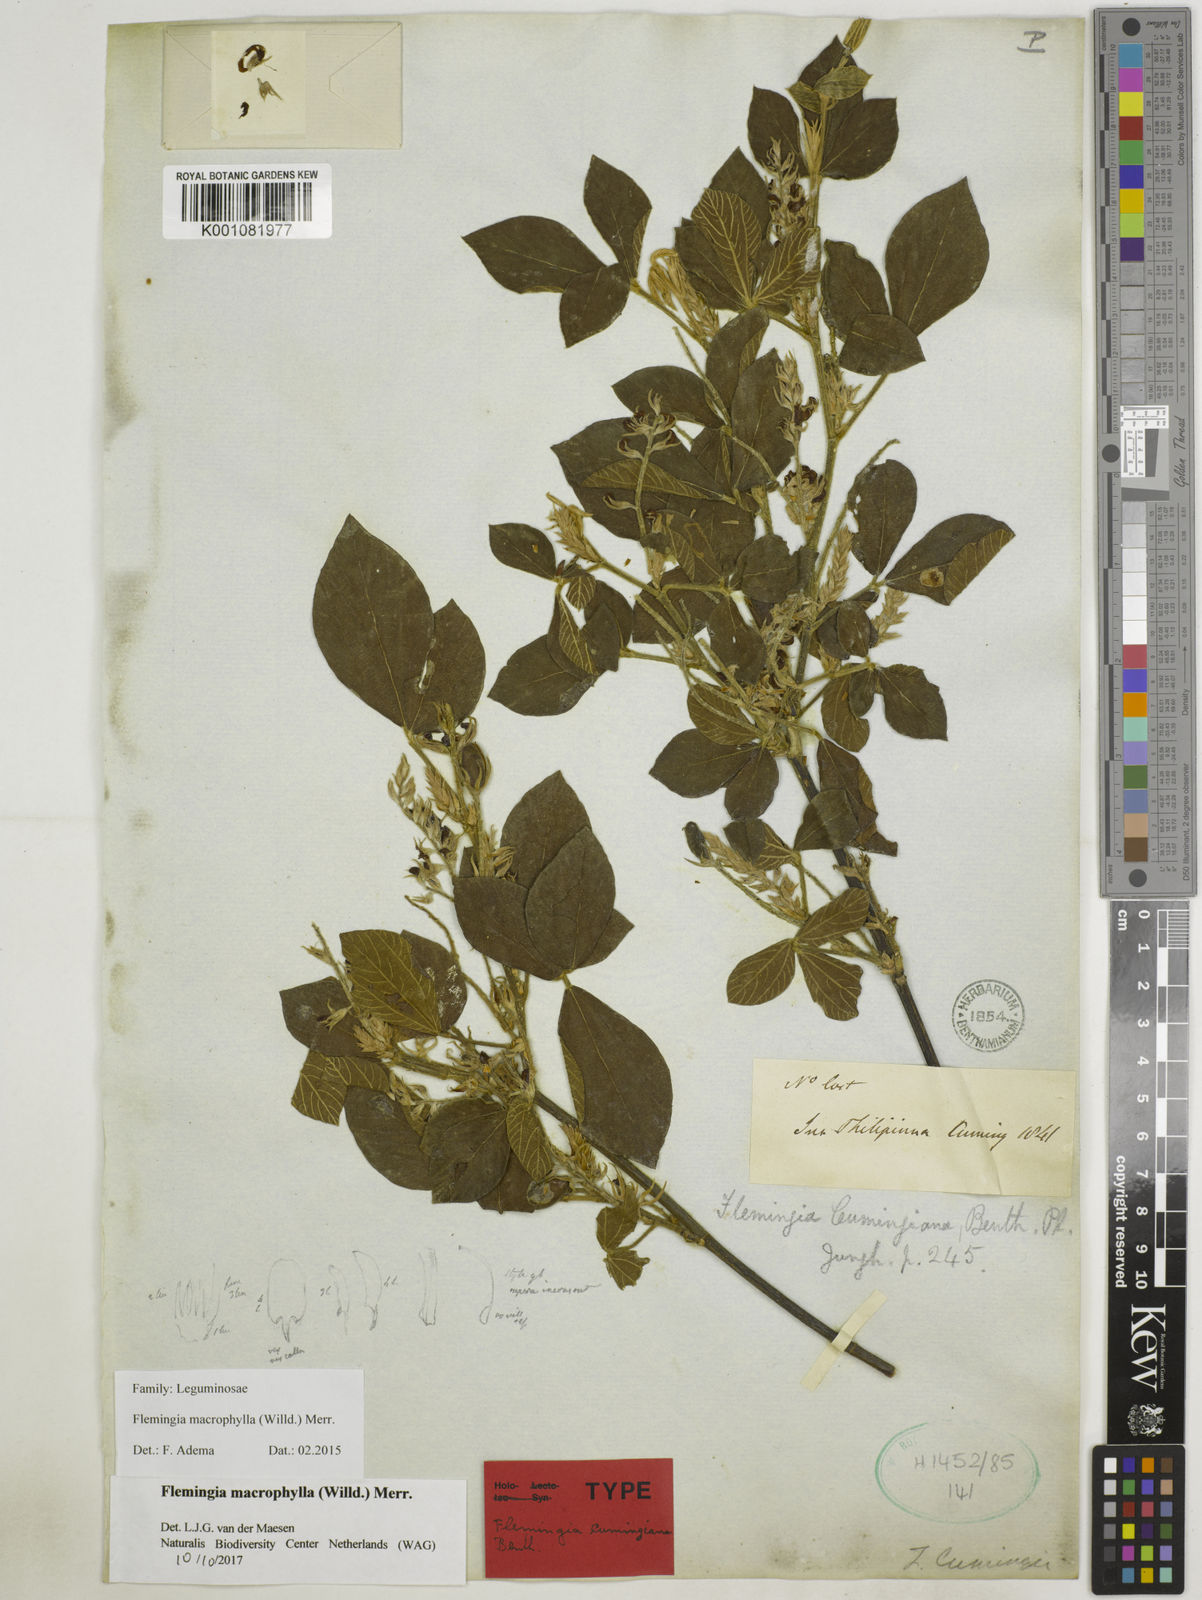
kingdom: Plantae
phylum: Tracheophyta
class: Magnoliopsida
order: Fabales
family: Fabaceae
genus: Flemingia
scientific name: Flemingia macrophylla
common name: Flemingia
